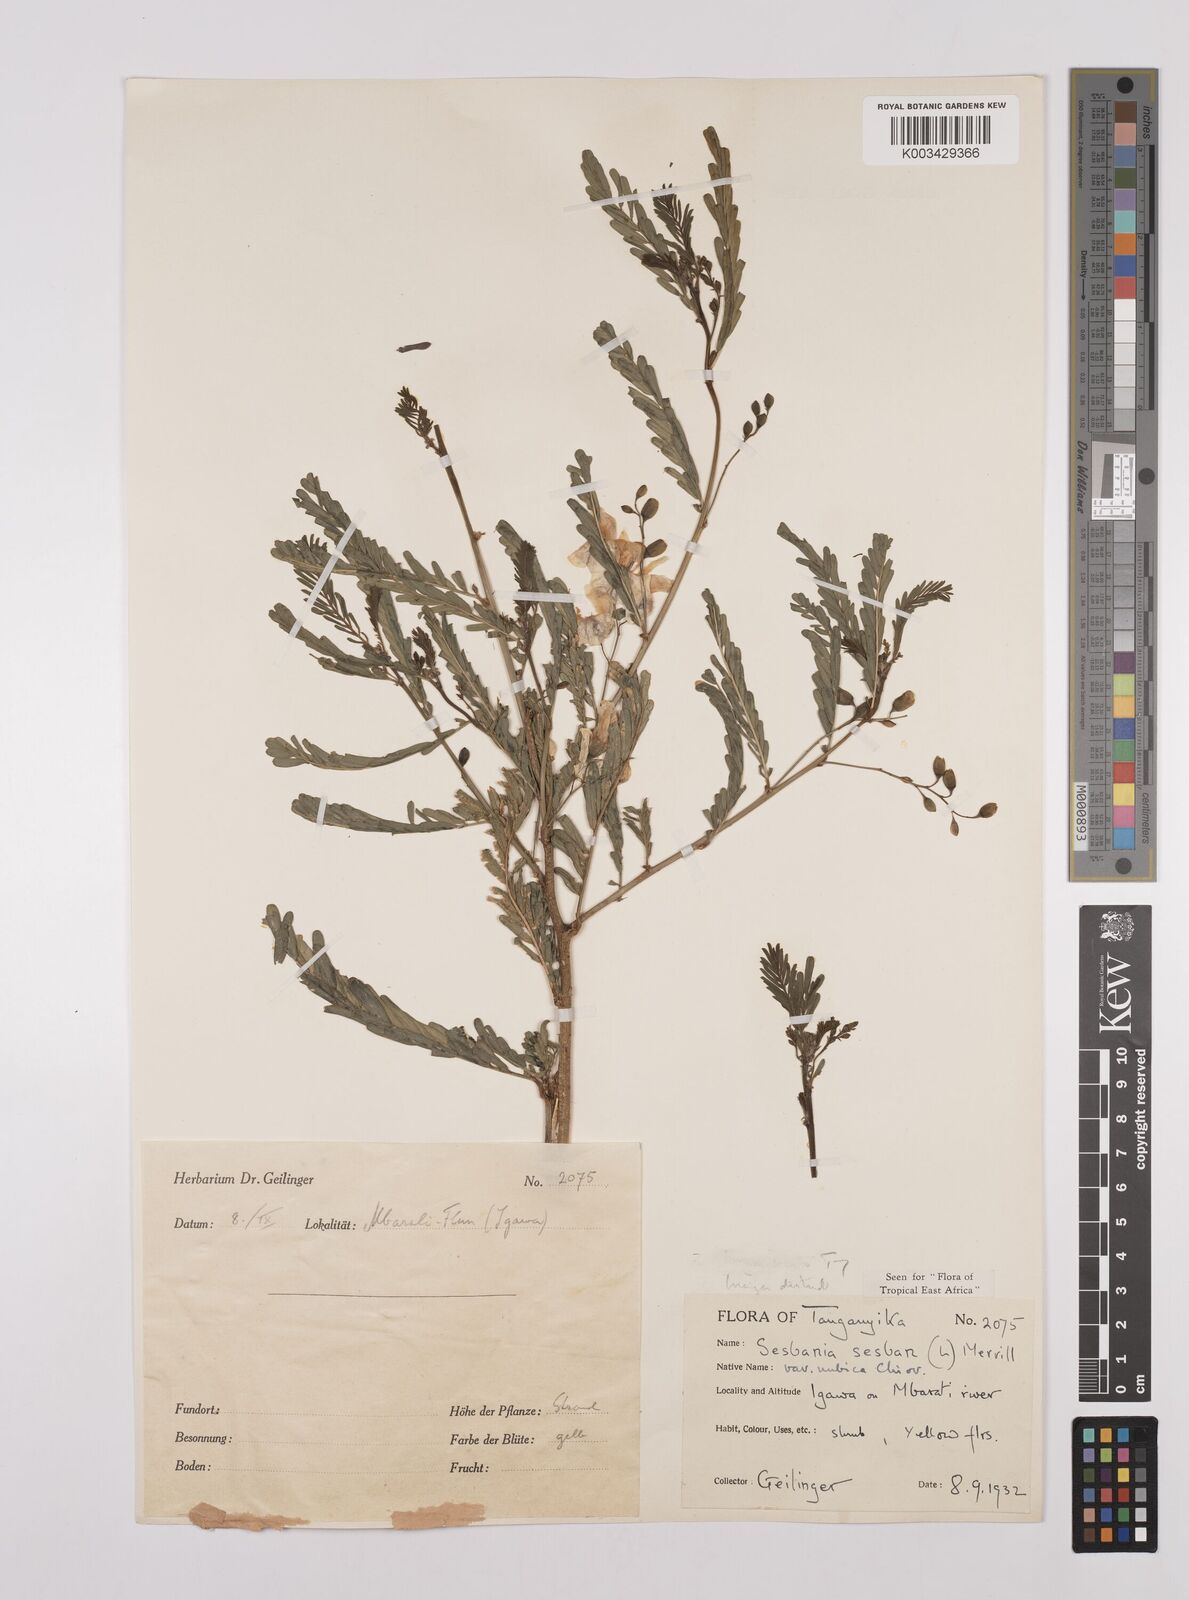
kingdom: Plantae
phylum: Tracheophyta
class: Magnoliopsida
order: Fabales
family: Fabaceae
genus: Sesbania
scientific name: Sesbania sesban
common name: Egyptian sesban
